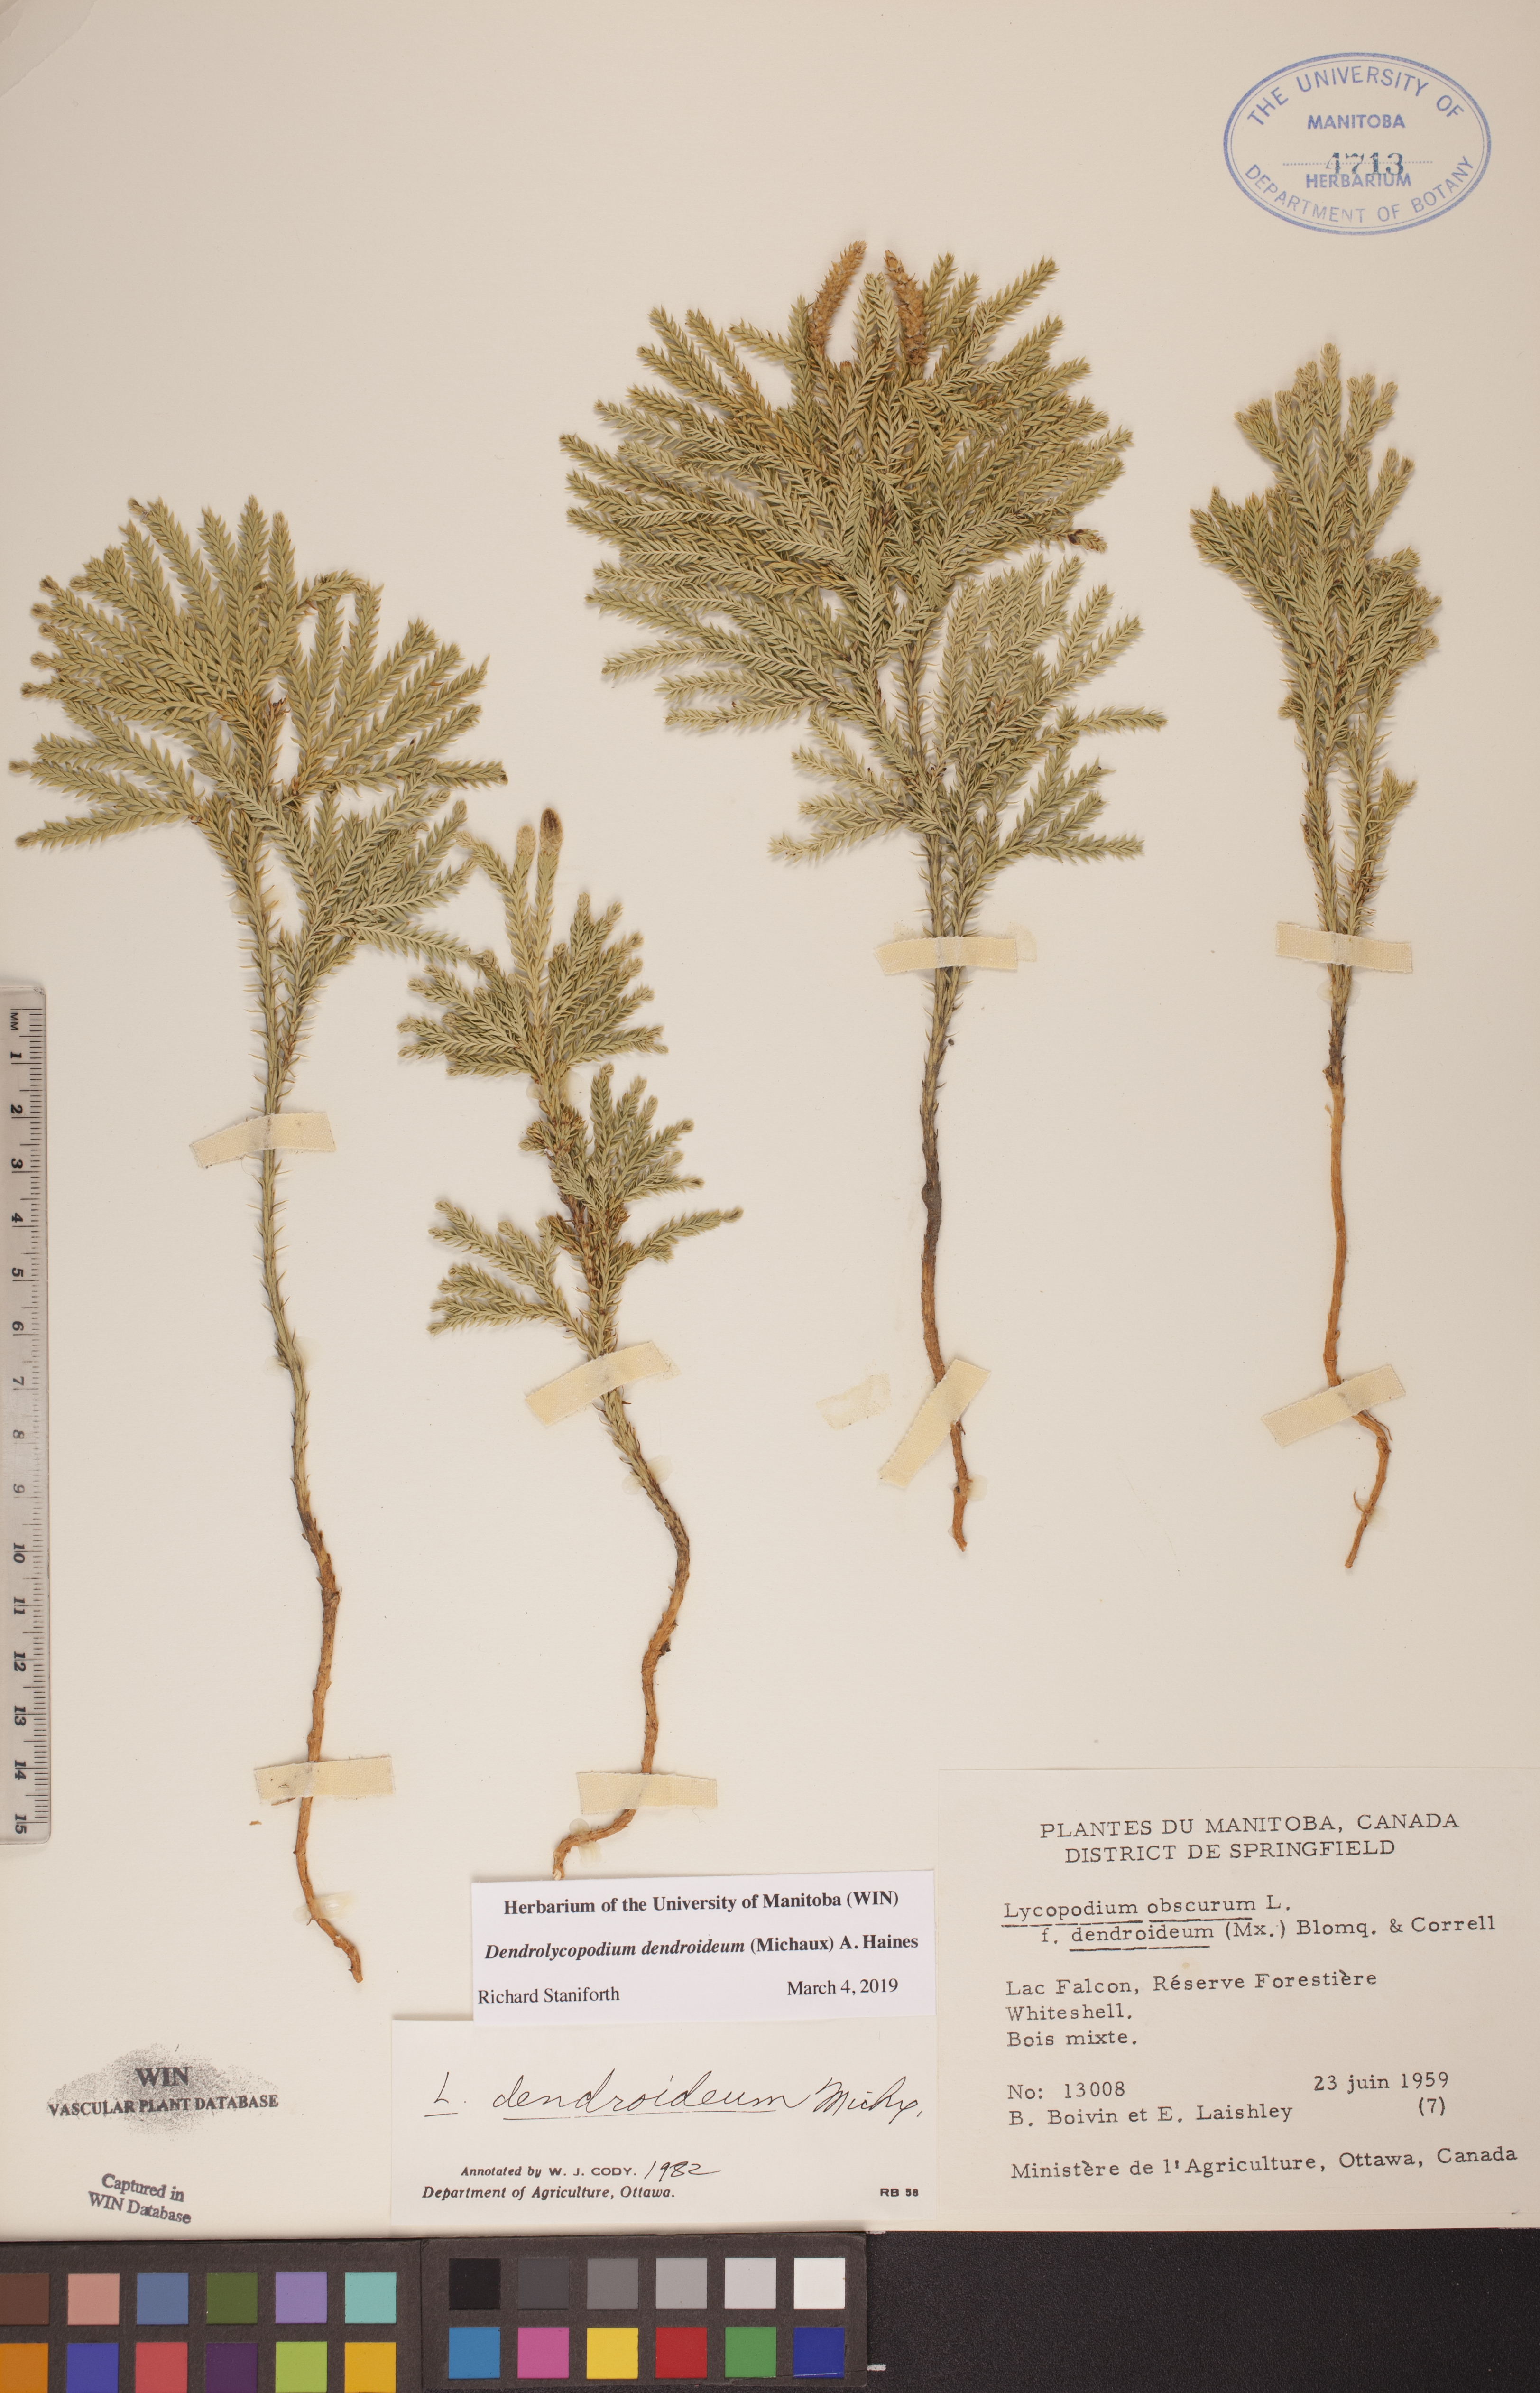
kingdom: Plantae
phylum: Tracheophyta
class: Lycopodiopsida
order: Lycopodiales
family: Lycopodiaceae
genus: Dendrolycopodium
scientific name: Dendrolycopodium dendroideum
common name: Northern tree-clubmoss
